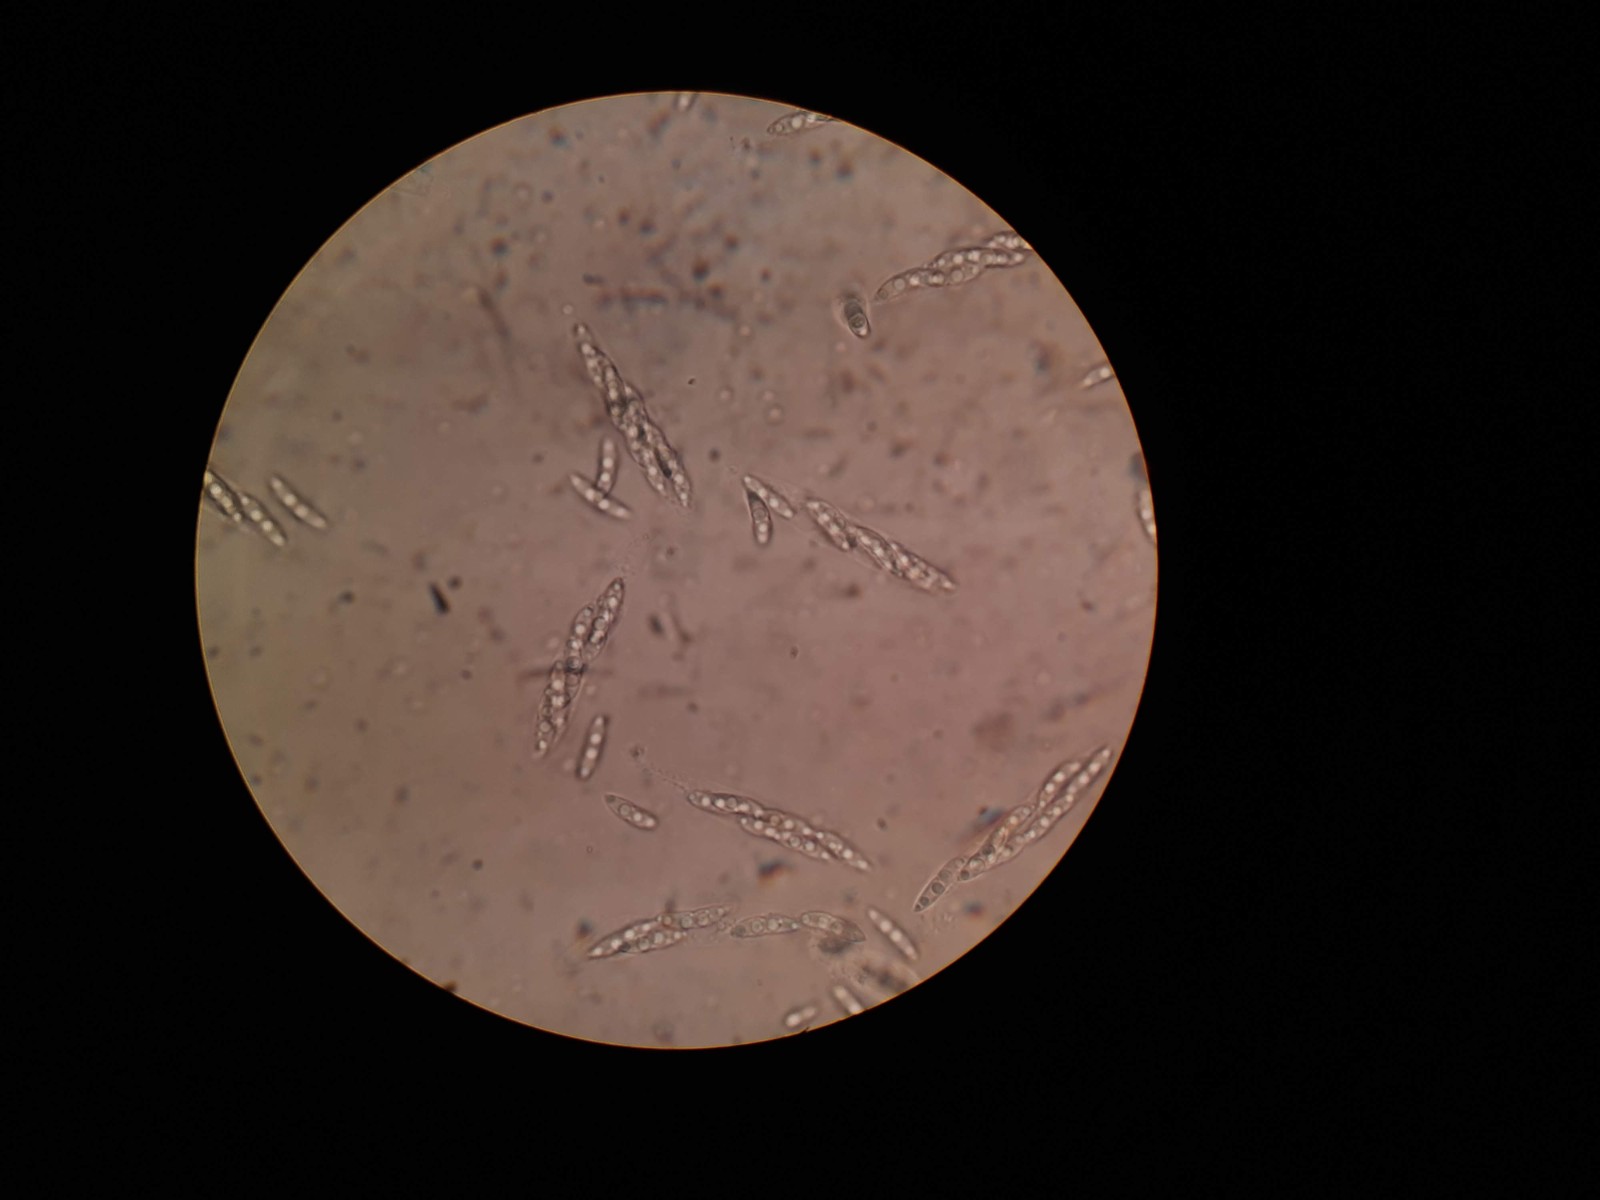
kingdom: Fungi
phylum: Ascomycota
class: Sordariomycetes
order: Diaporthales
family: Diaporthaceae
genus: Diaporthe
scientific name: Diaporthe strumella
